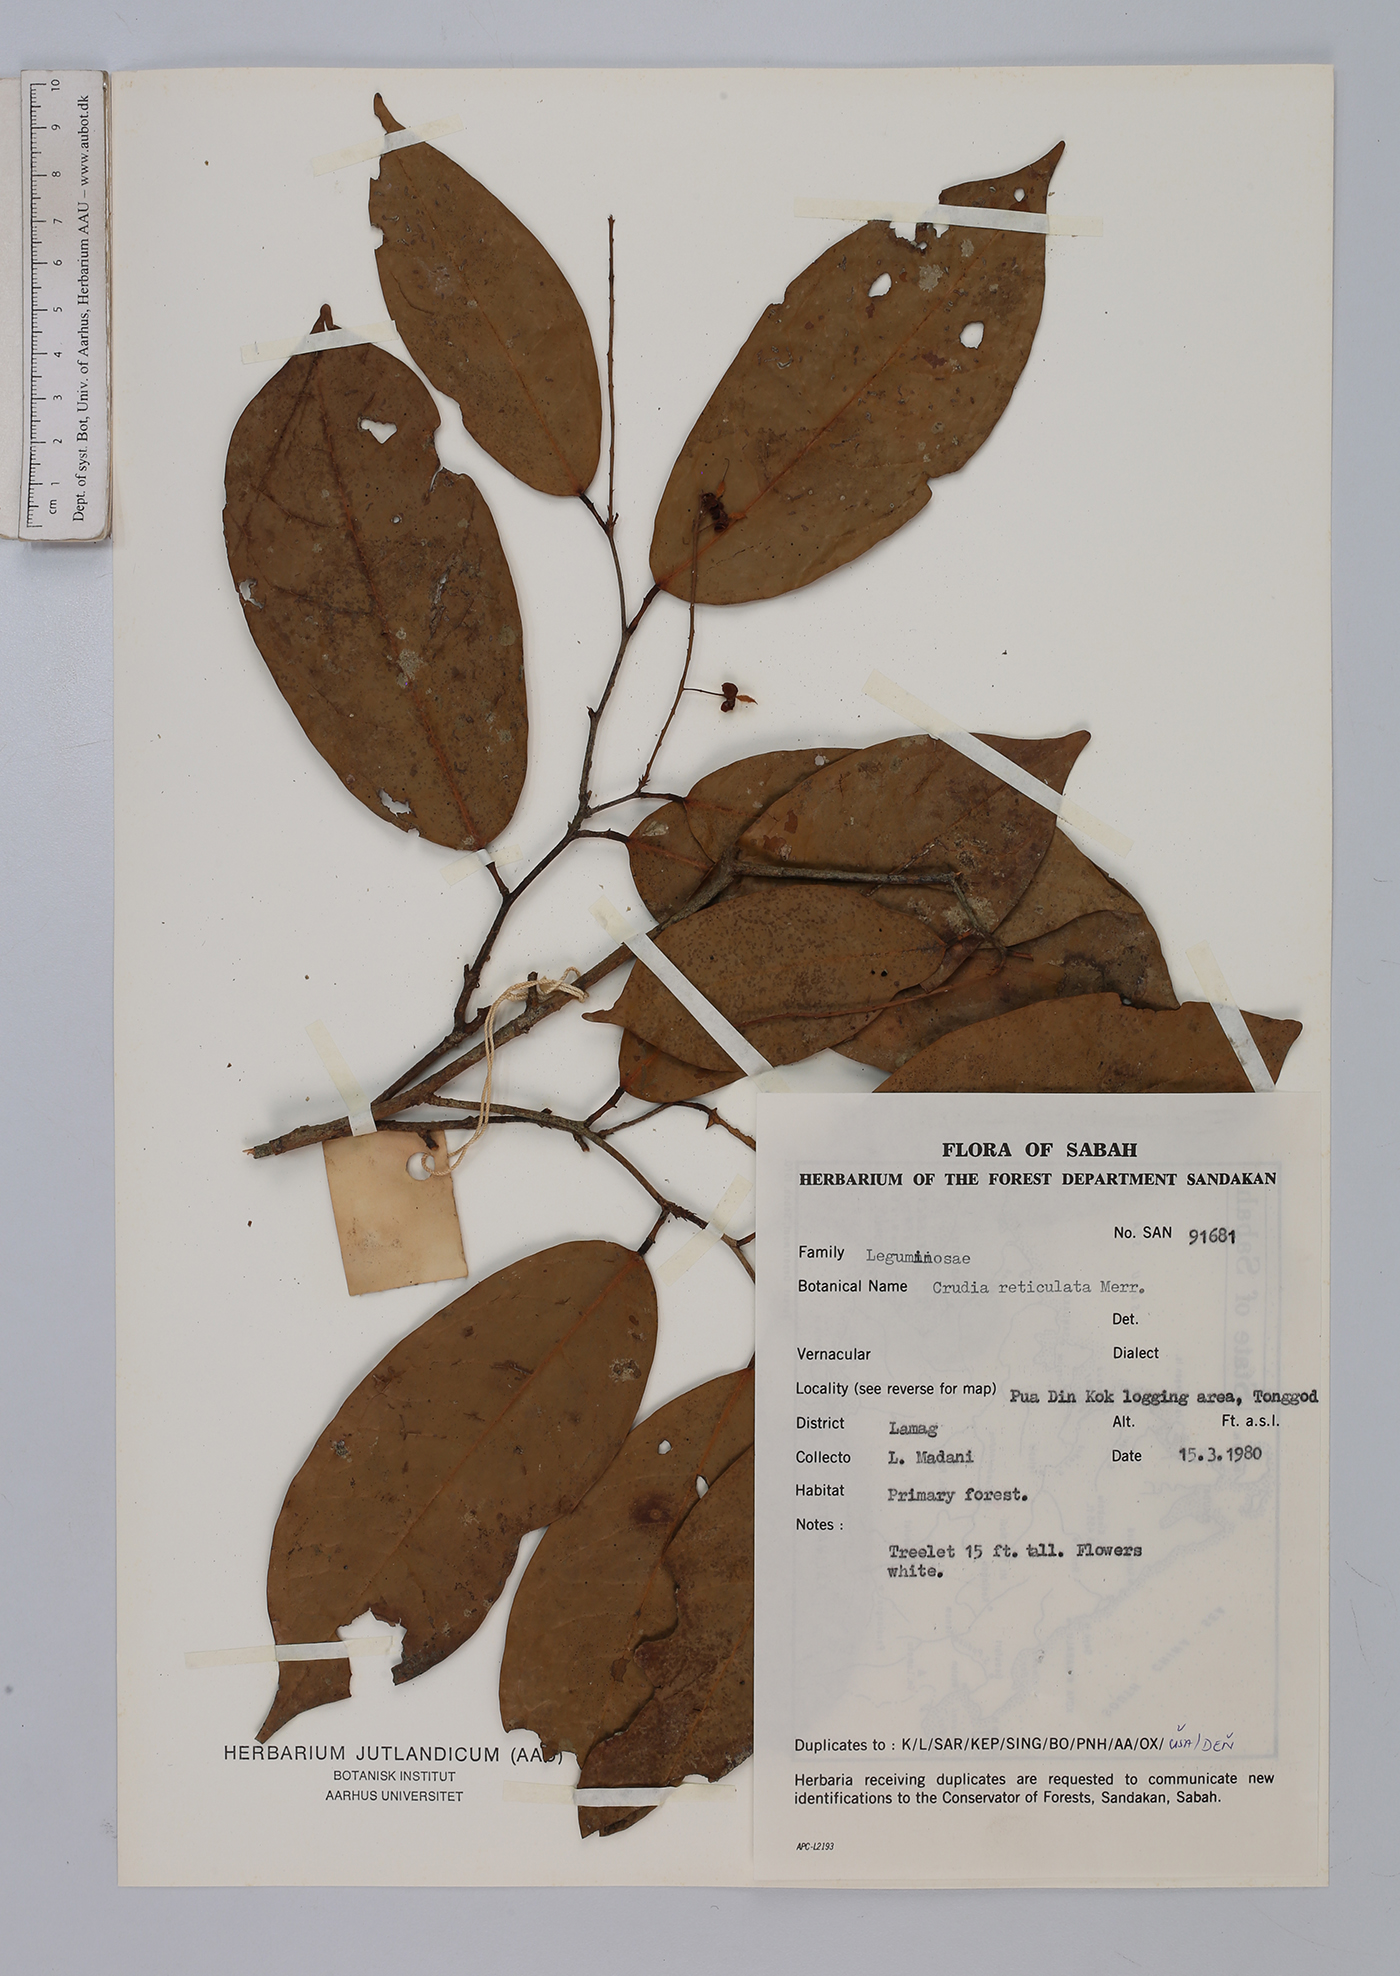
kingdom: Plantae
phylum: Tracheophyta
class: Magnoliopsida
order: Fabales
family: Fabaceae
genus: Crudia
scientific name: Crudia bantamensis
